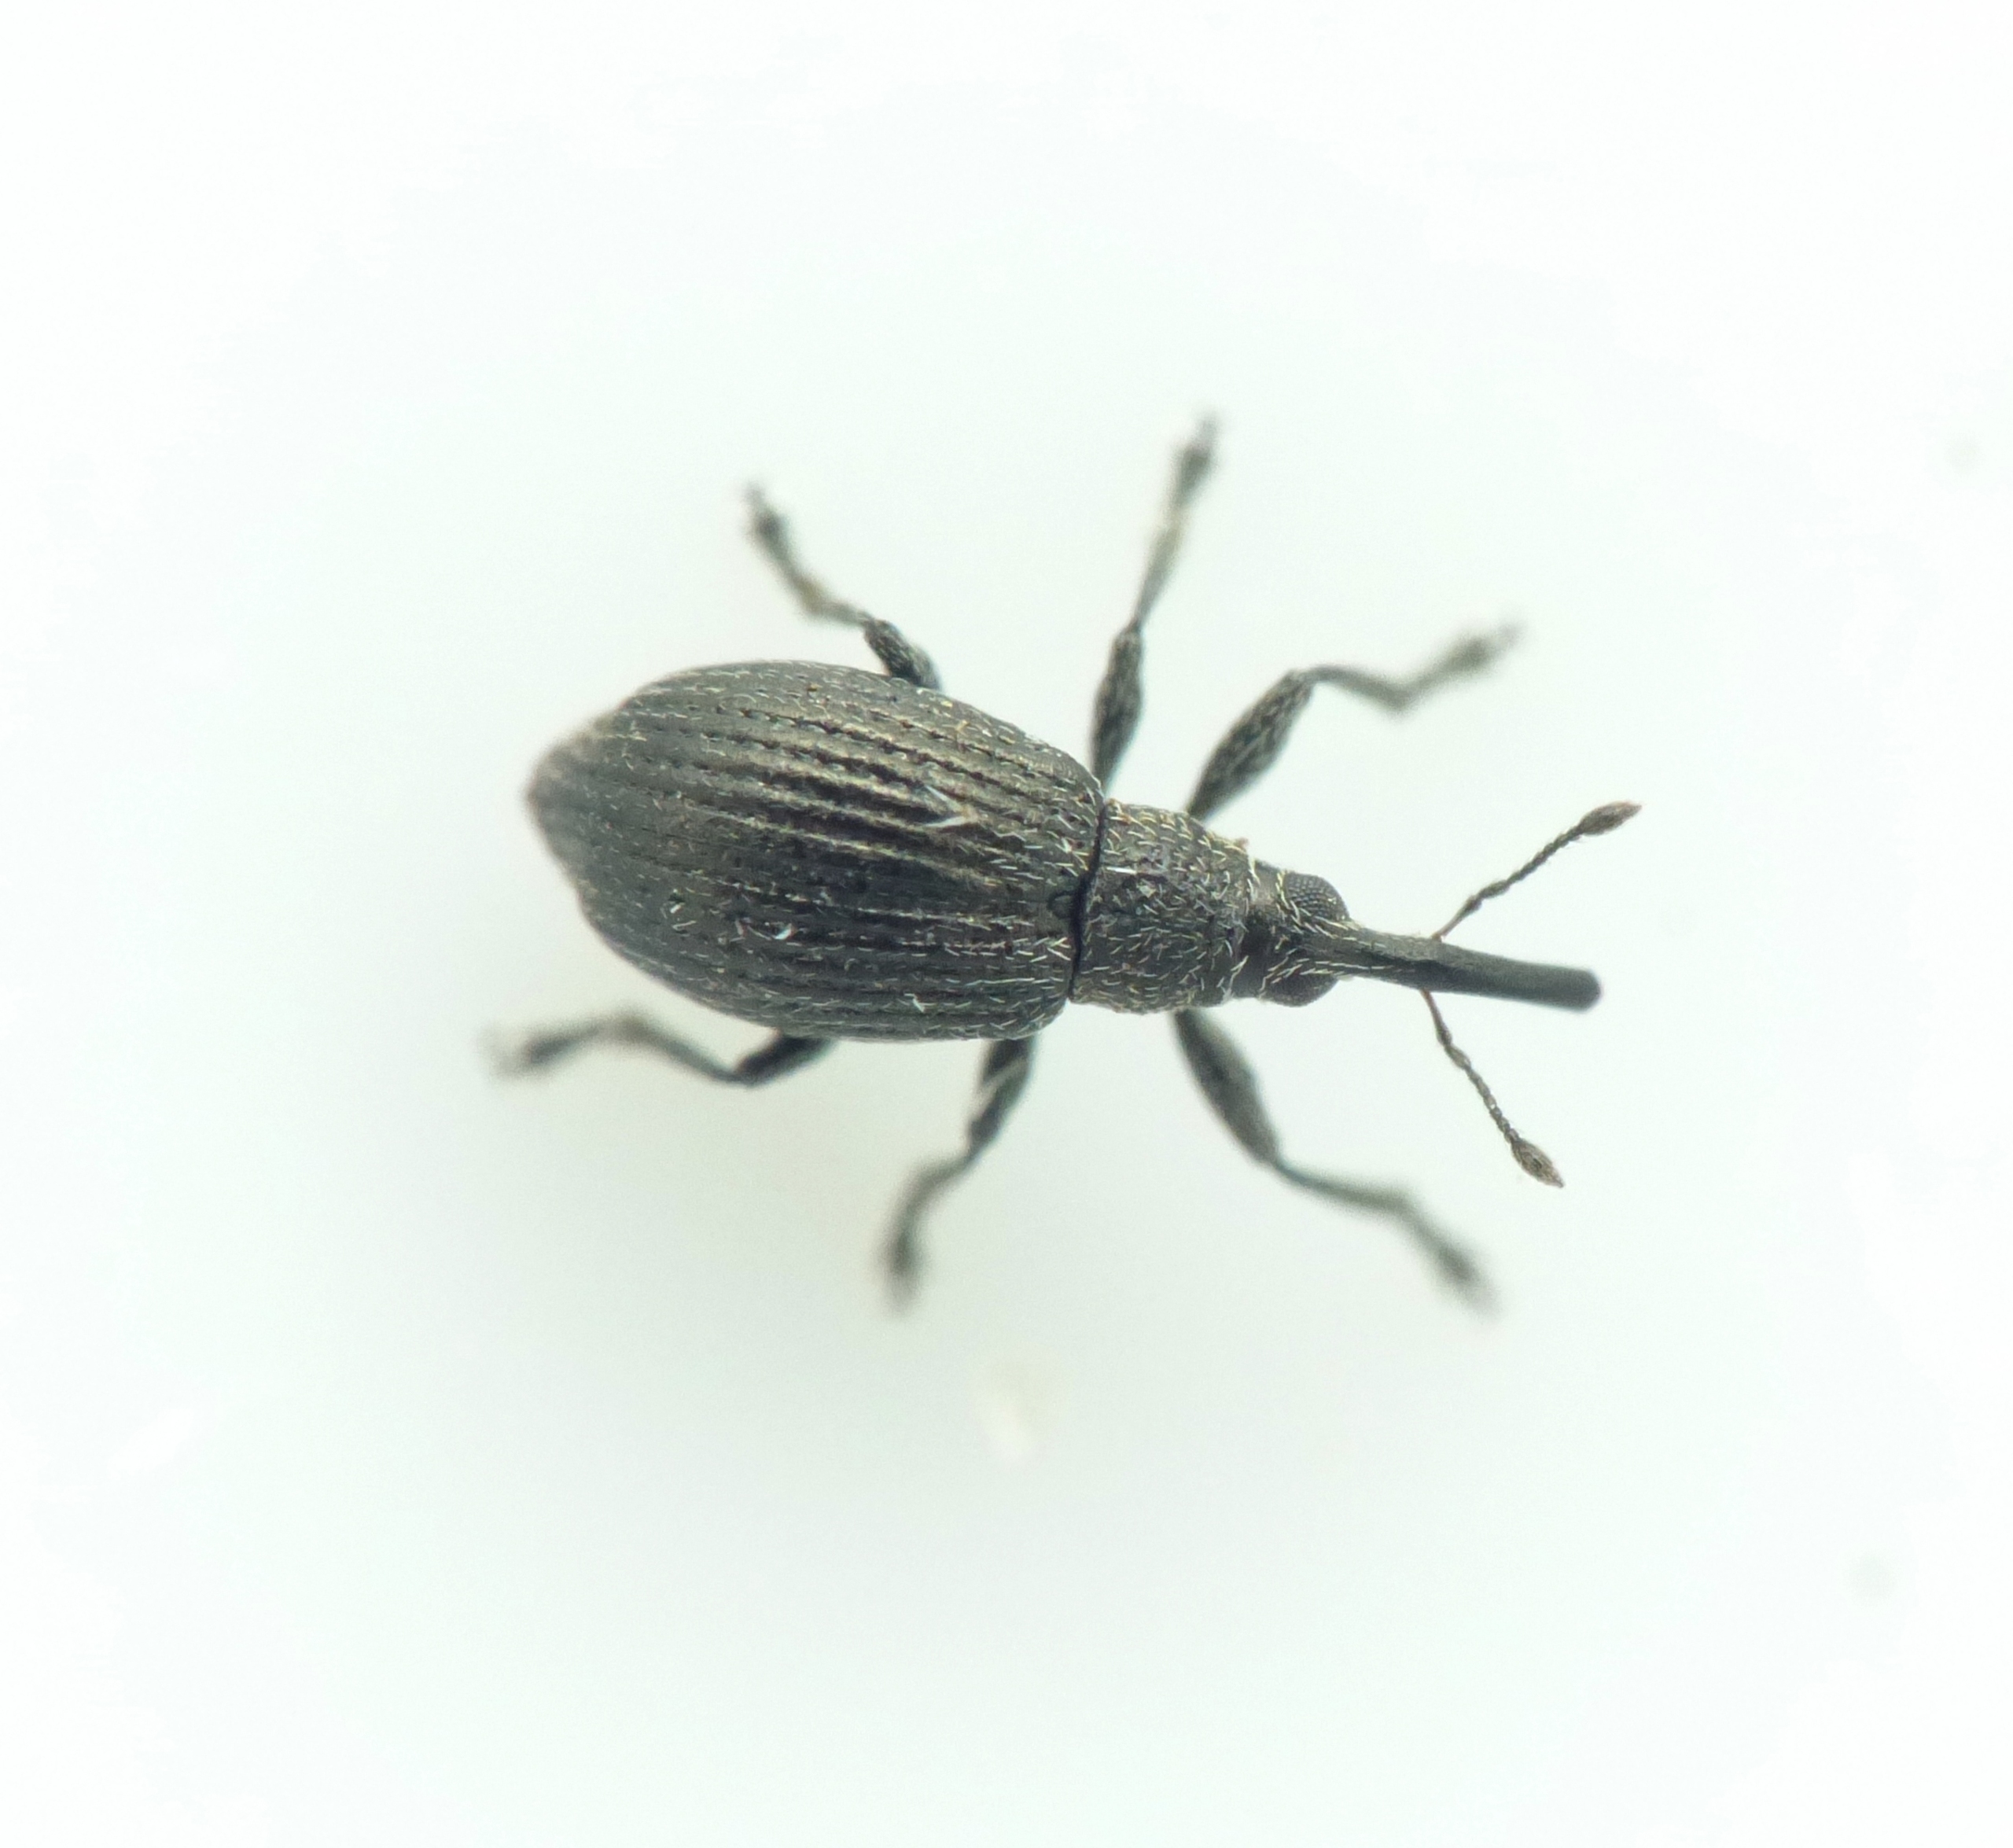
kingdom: Animalia
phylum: Arthropoda
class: Insecta
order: Coleoptera
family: Brentidae
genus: Betulapion
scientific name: Betulapion simile
